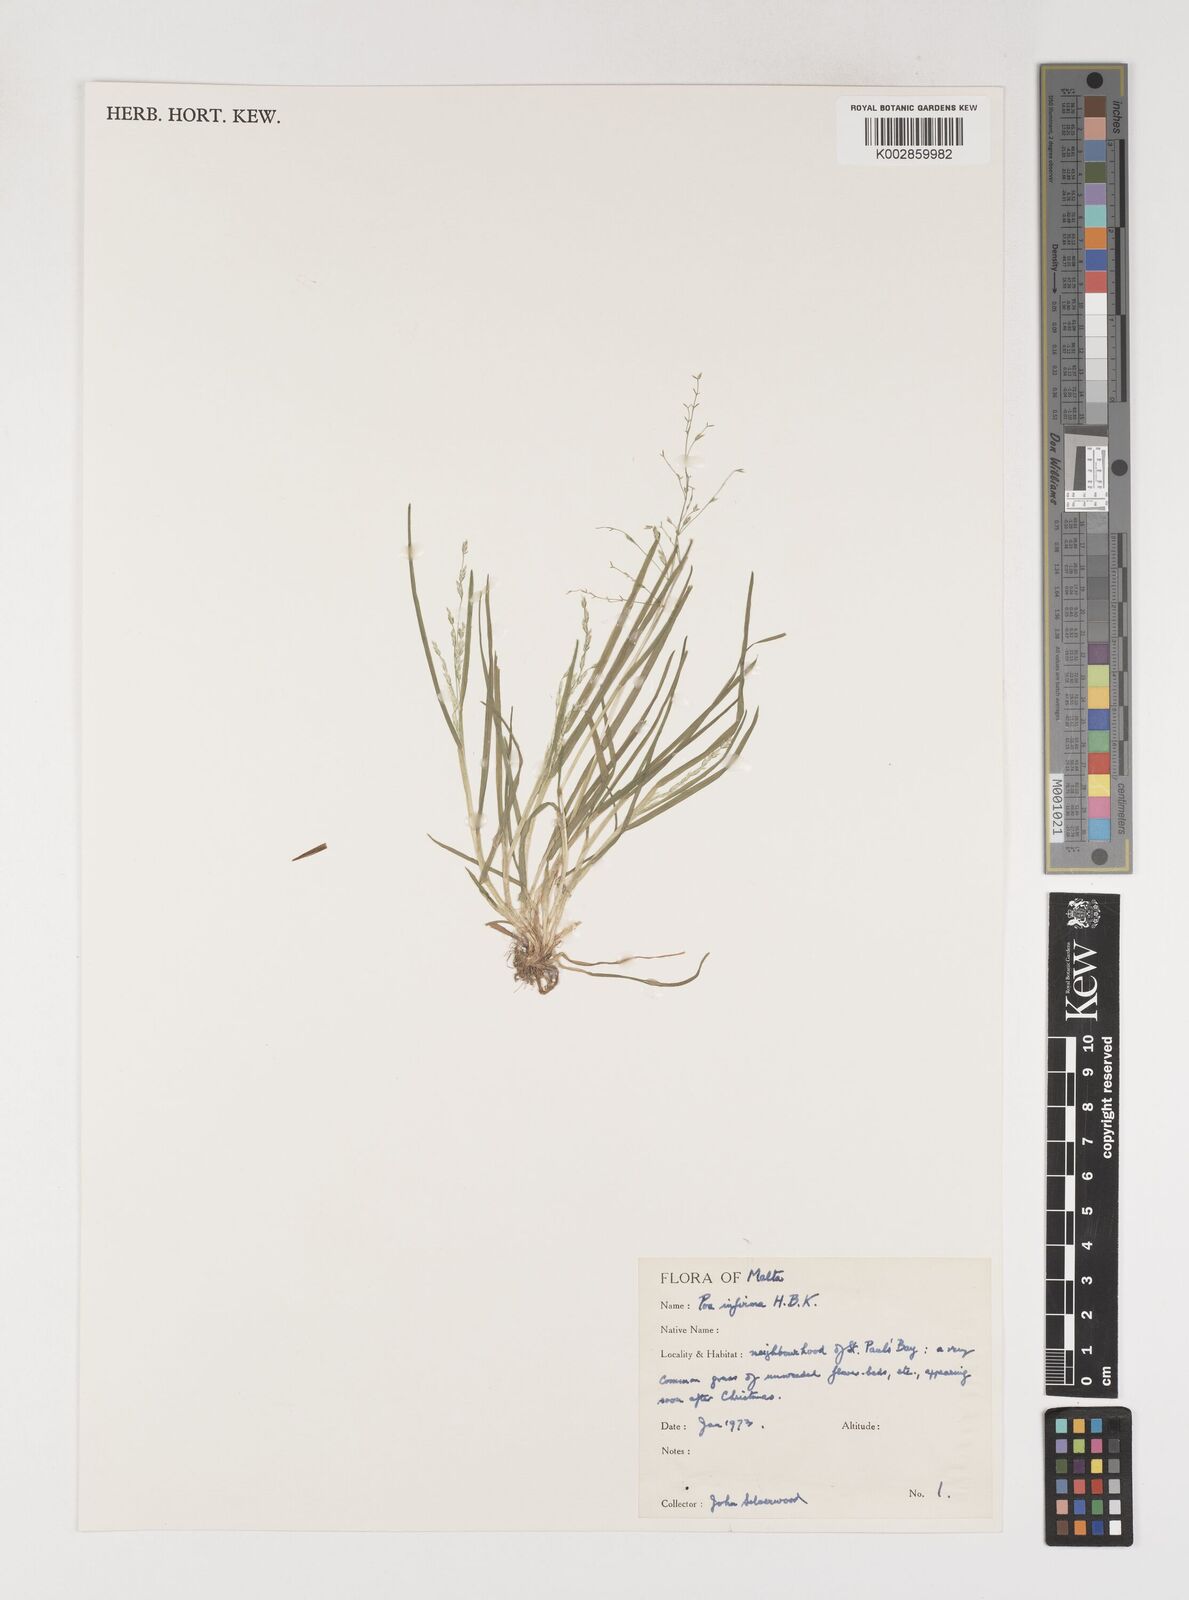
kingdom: Plantae
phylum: Tracheophyta
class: Liliopsida
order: Poales
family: Poaceae
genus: Poa
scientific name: Poa infirma
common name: Weak bluegrass
